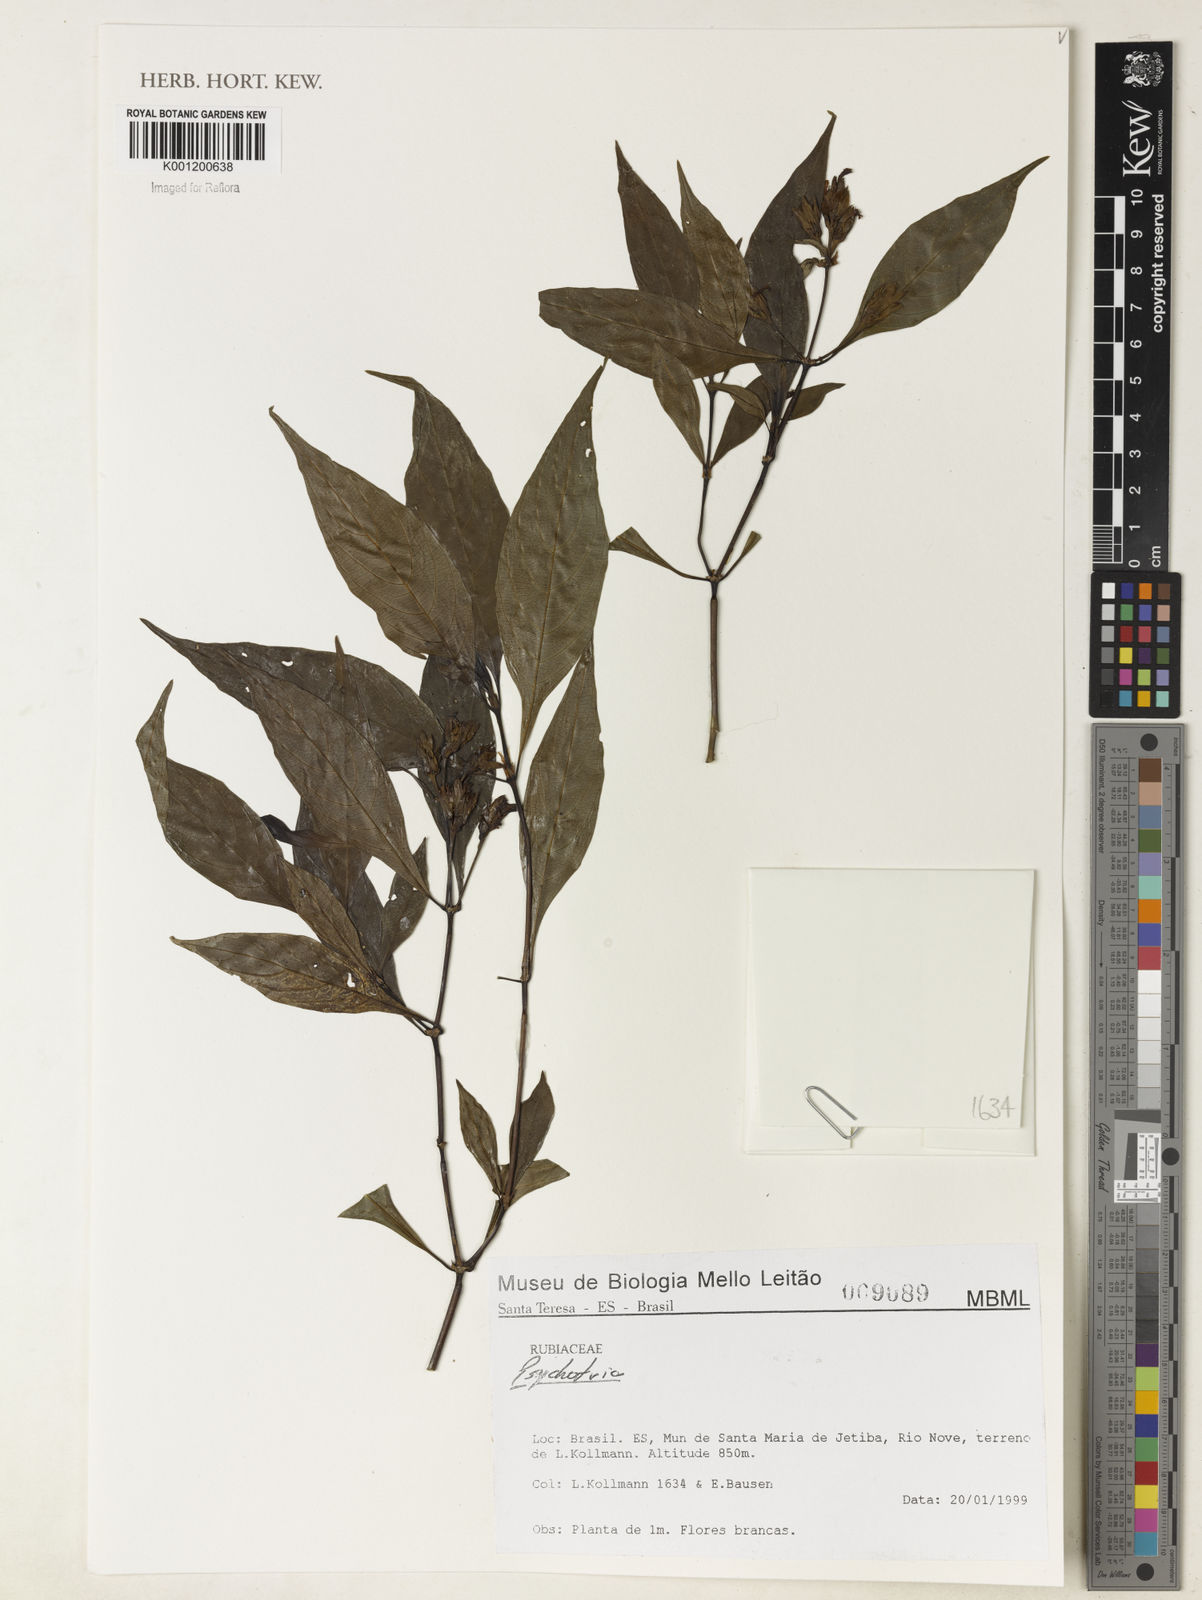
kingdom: Plantae
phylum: Tracheophyta
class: Magnoliopsida
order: Gentianales
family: Rubiaceae
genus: Psychotria
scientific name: Psychotria
